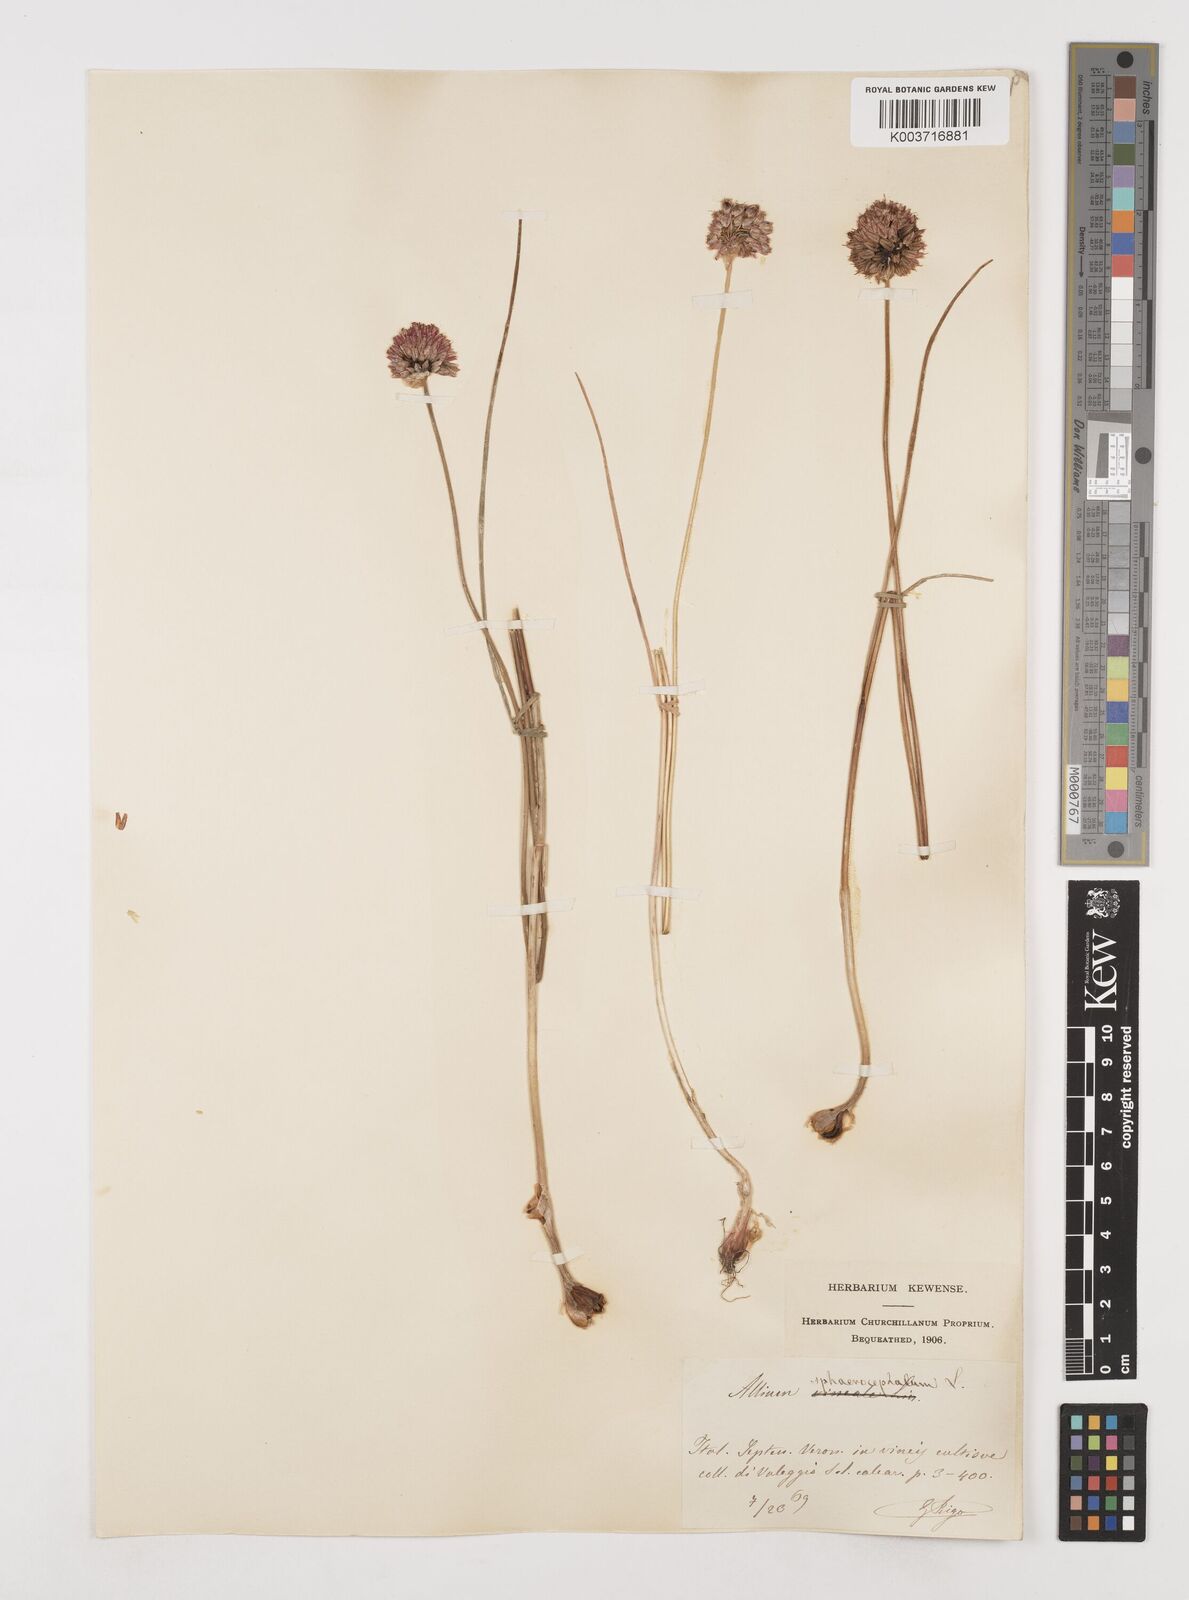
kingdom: Plantae
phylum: Tracheophyta
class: Liliopsida
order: Asparagales
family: Amaryllidaceae
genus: Allium
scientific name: Allium sphaerocephalon
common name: Round-headed leek
